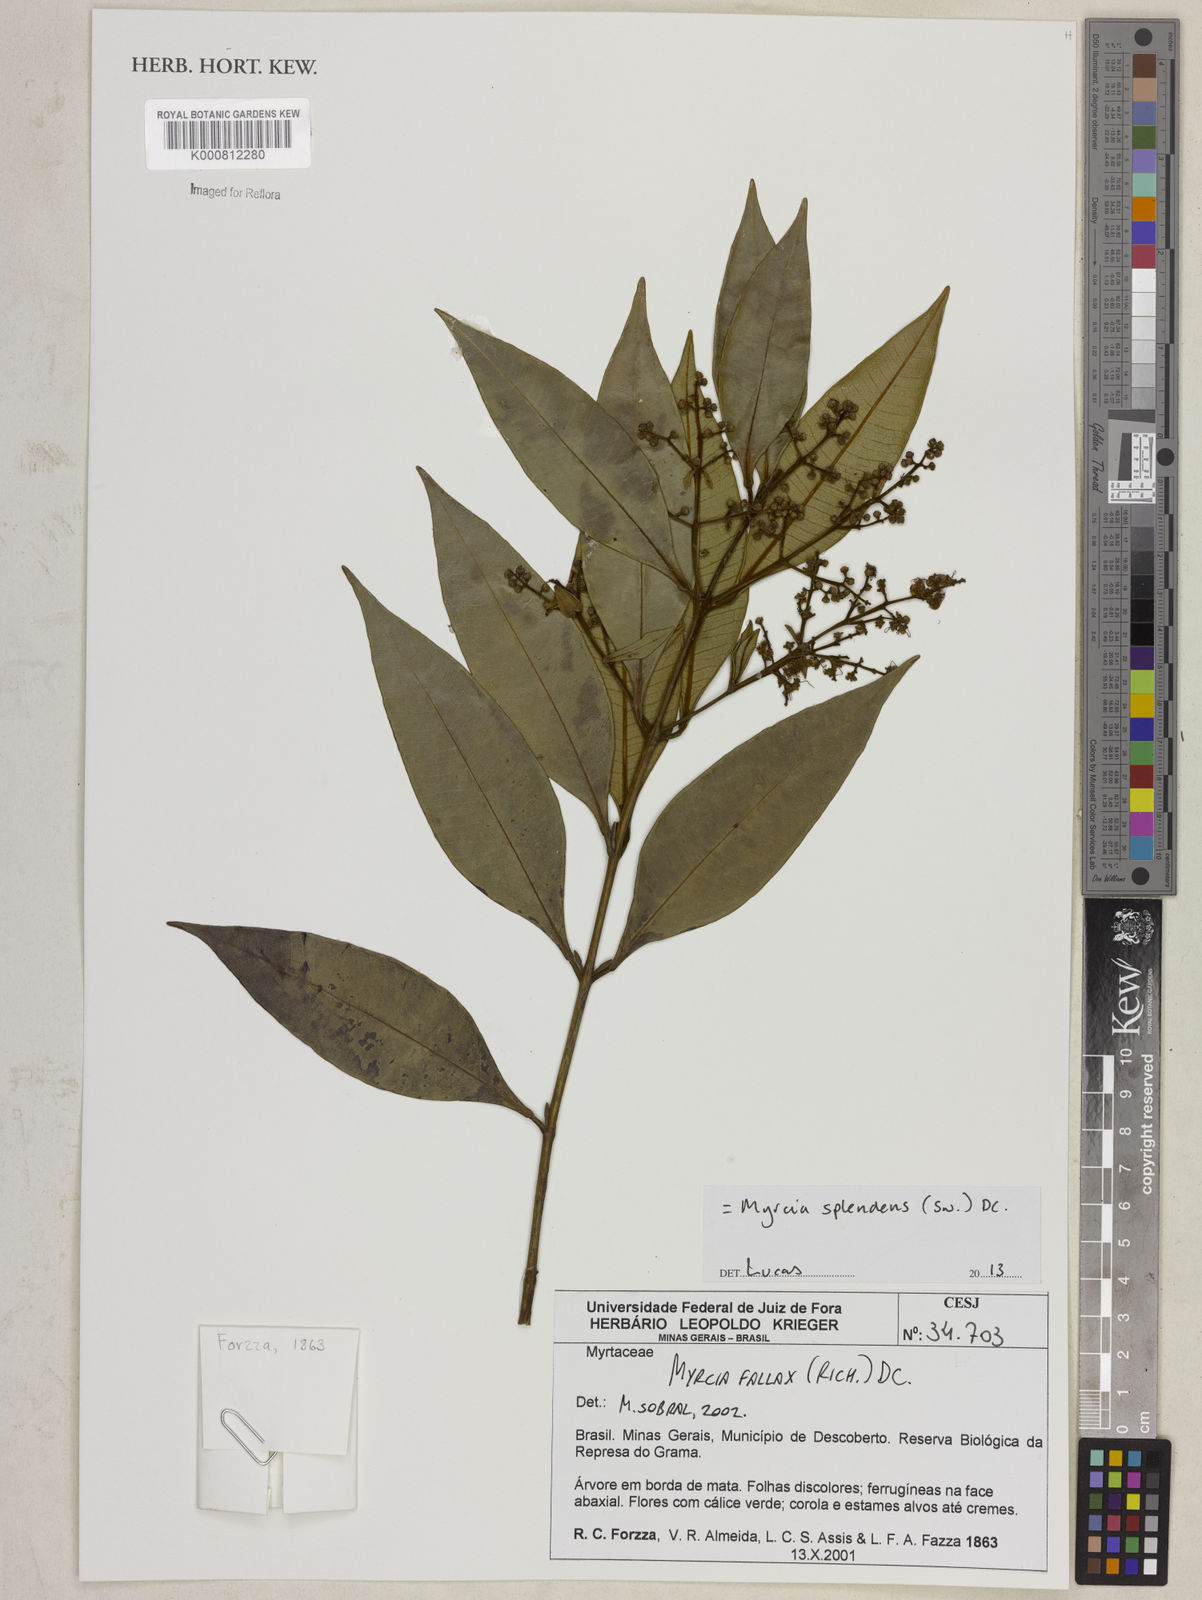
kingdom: Plantae
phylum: Tracheophyta
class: Magnoliopsida
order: Myrtales
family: Myrtaceae
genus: Myrcia
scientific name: Myrcia splendens
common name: Surinam cherry
